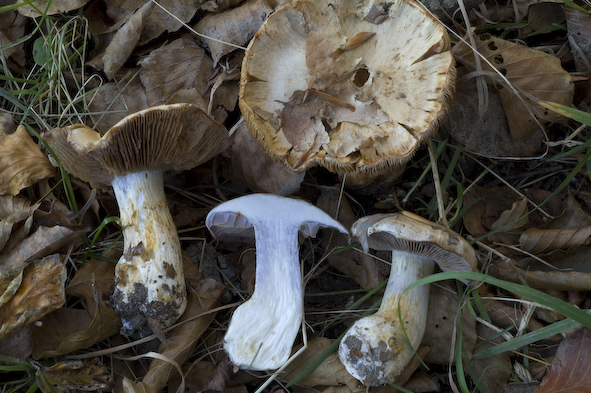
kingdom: Fungi
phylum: Basidiomycota
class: Agaricomycetes
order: Agaricales
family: Cortinariaceae
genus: Thaxterogaster
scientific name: Thaxterogaster argenteolilacinus
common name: sølvskinnende slørhat
